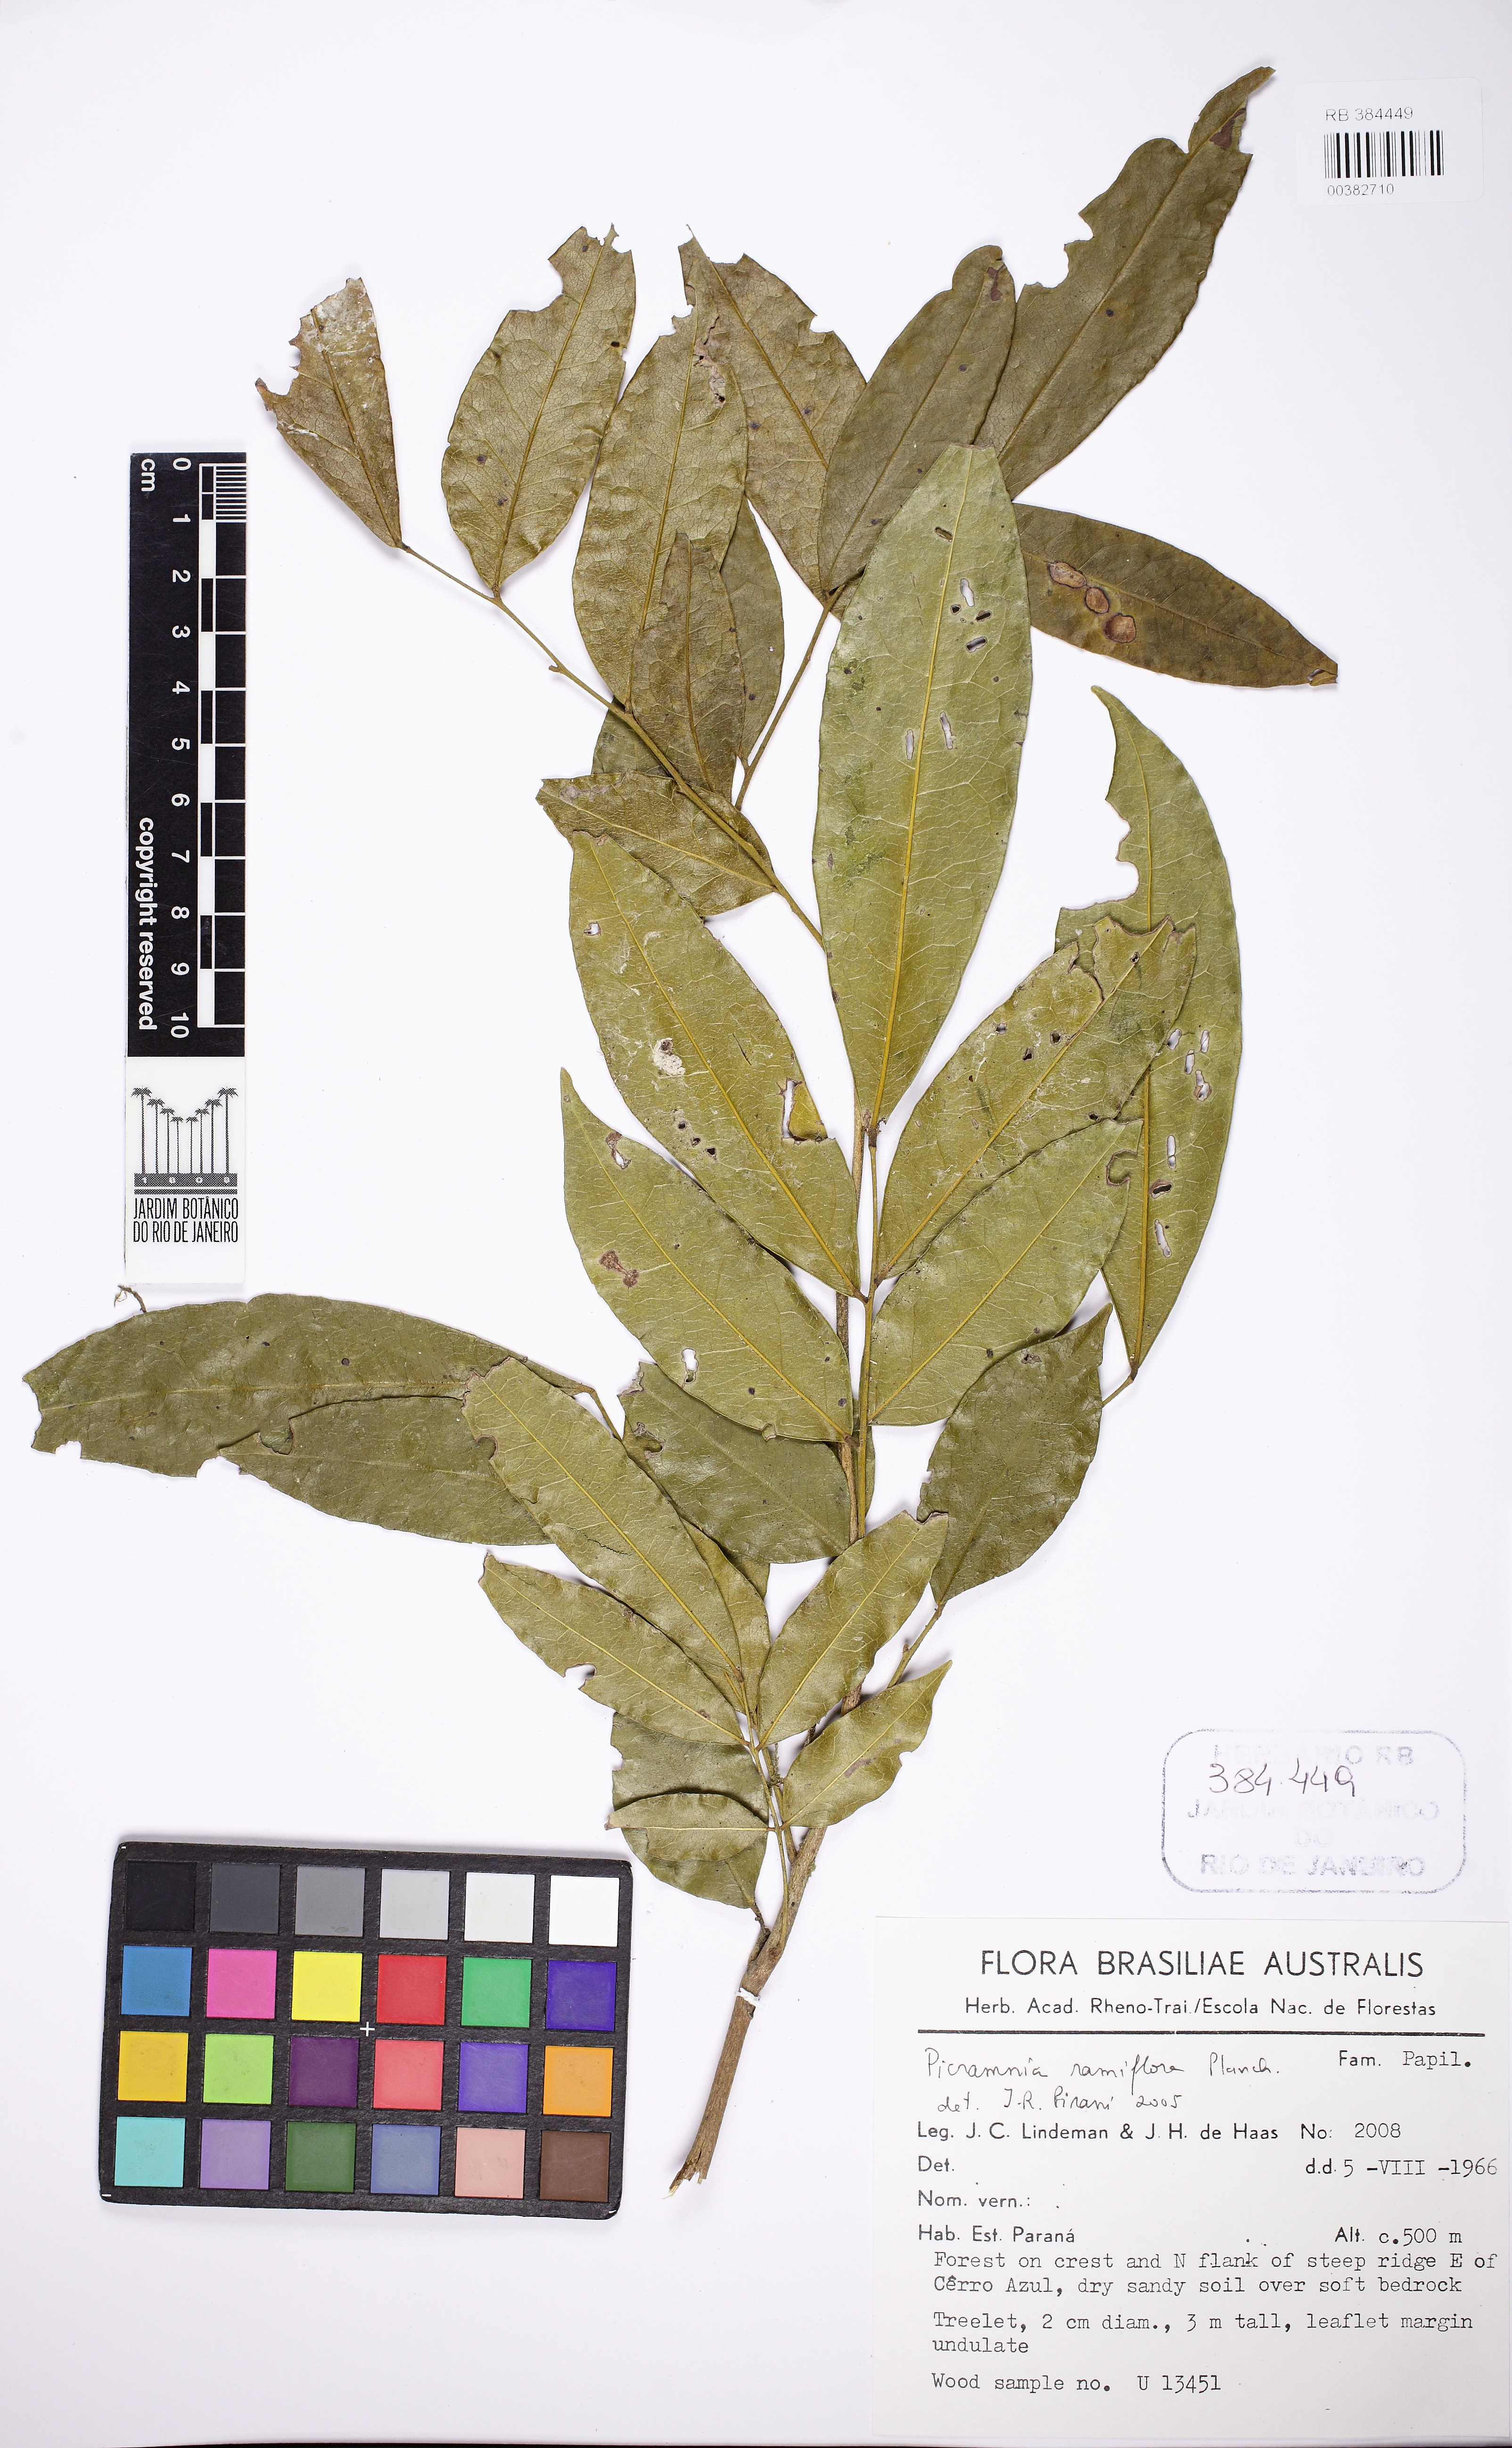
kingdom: Plantae
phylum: Tracheophyta
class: Magnoliopsida
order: Picramniales
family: Picramniaceae
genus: Picramnia
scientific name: Picramnia ramiflora
